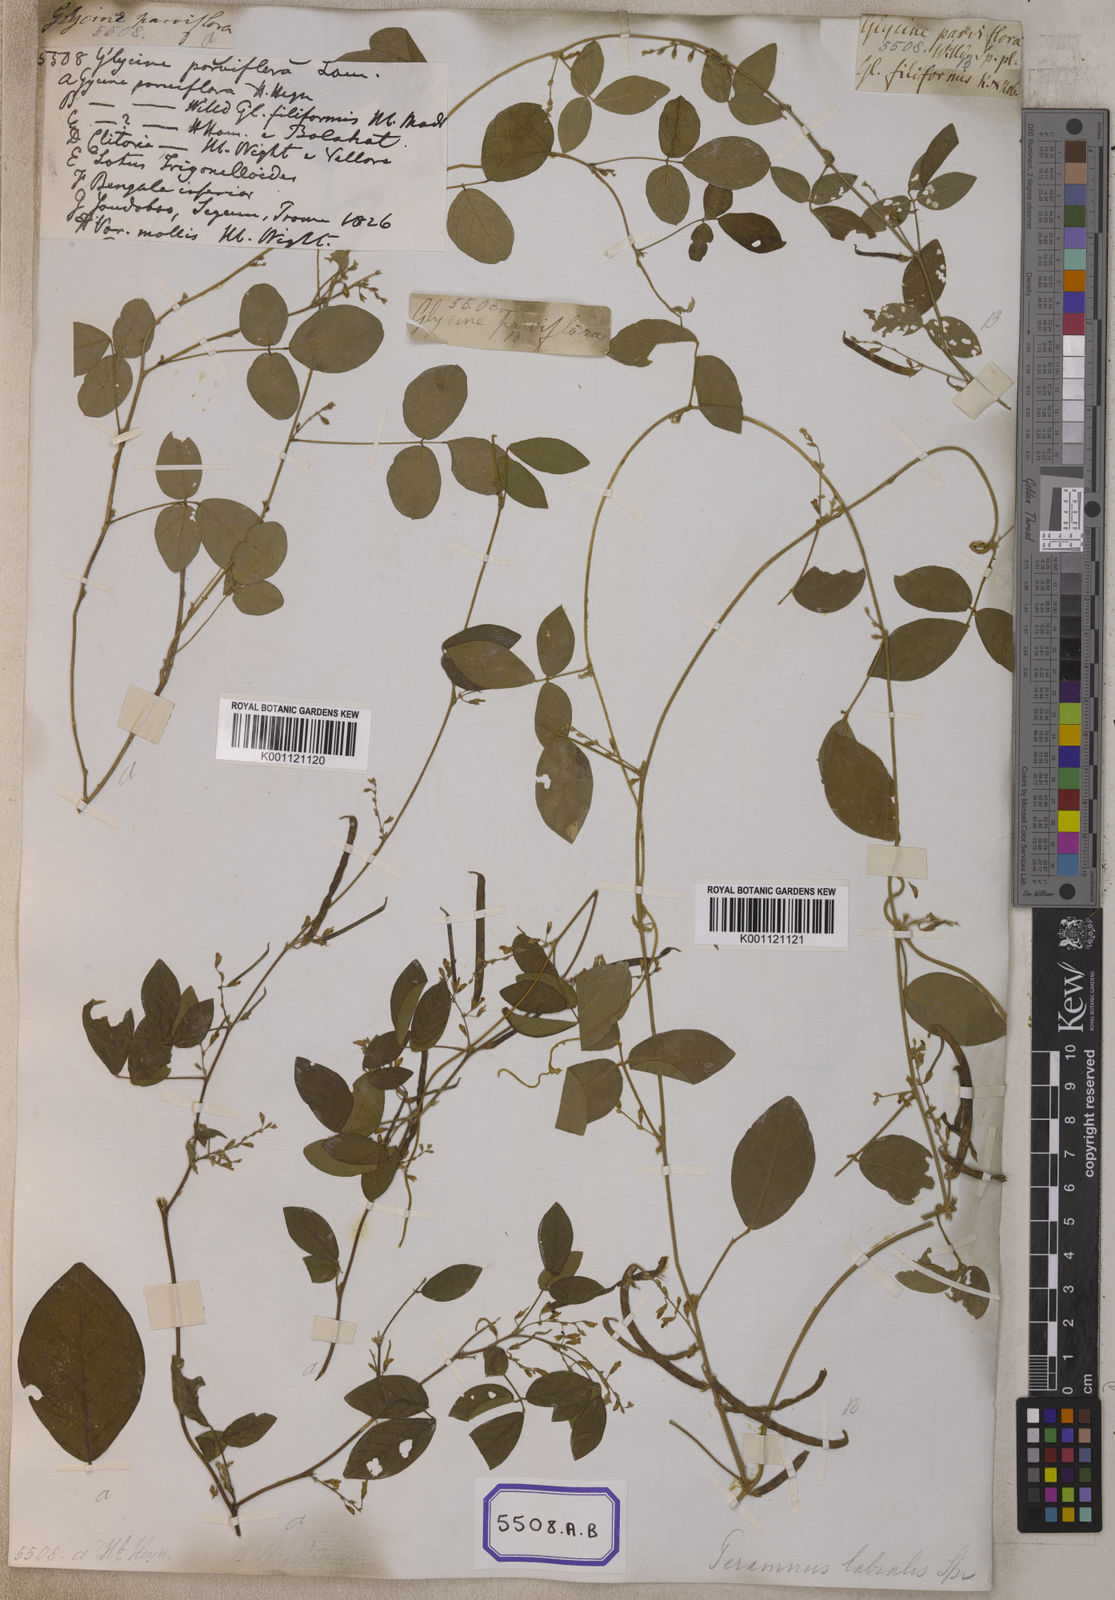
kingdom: Plantae
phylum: Tracheophyta
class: Magnoliopsida
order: Fabales
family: Fabaceae
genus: Teramnus
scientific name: Teramnus labialis
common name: Blue wiss
